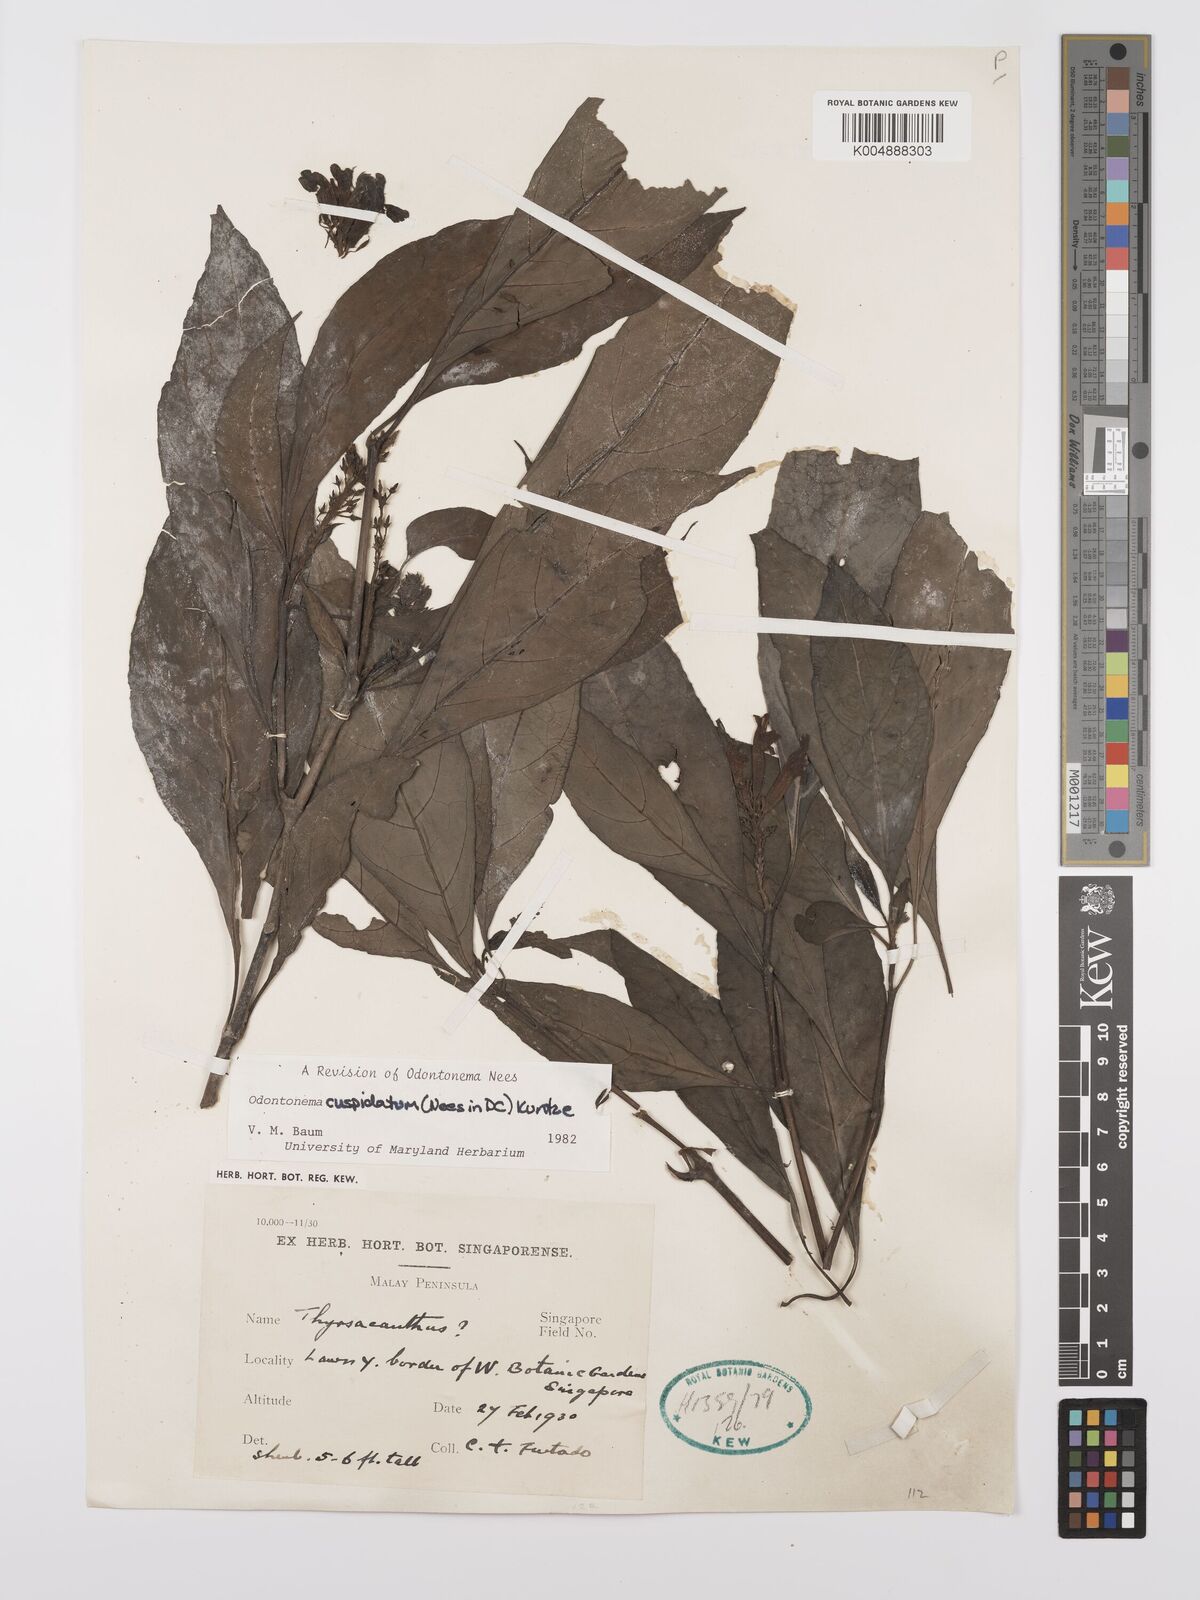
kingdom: Plantae
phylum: Tracheophyta
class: Magnoliopsida
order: Lamiales
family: Acanthaceae
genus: Odontonema
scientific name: Odontonema cuspidatum
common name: Mottled toothedthread
